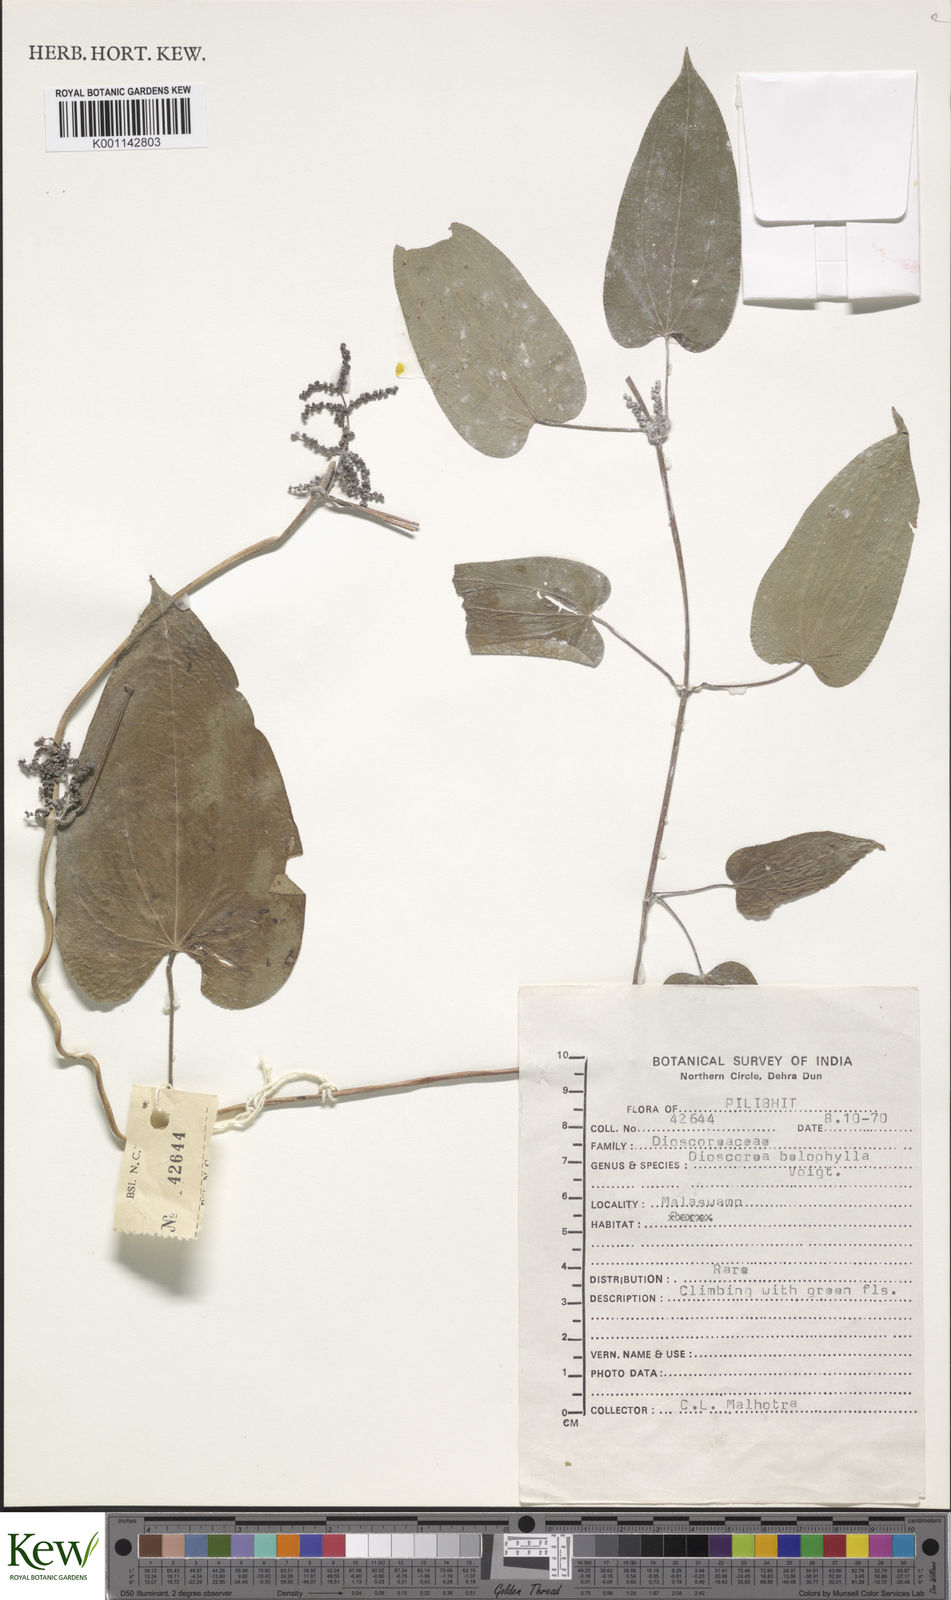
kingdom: Plantae
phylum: Tracheophyta
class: Liliopsida
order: Dioscoreales
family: Dioscoreaceae
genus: Dioscorea
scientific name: Dioscorea
